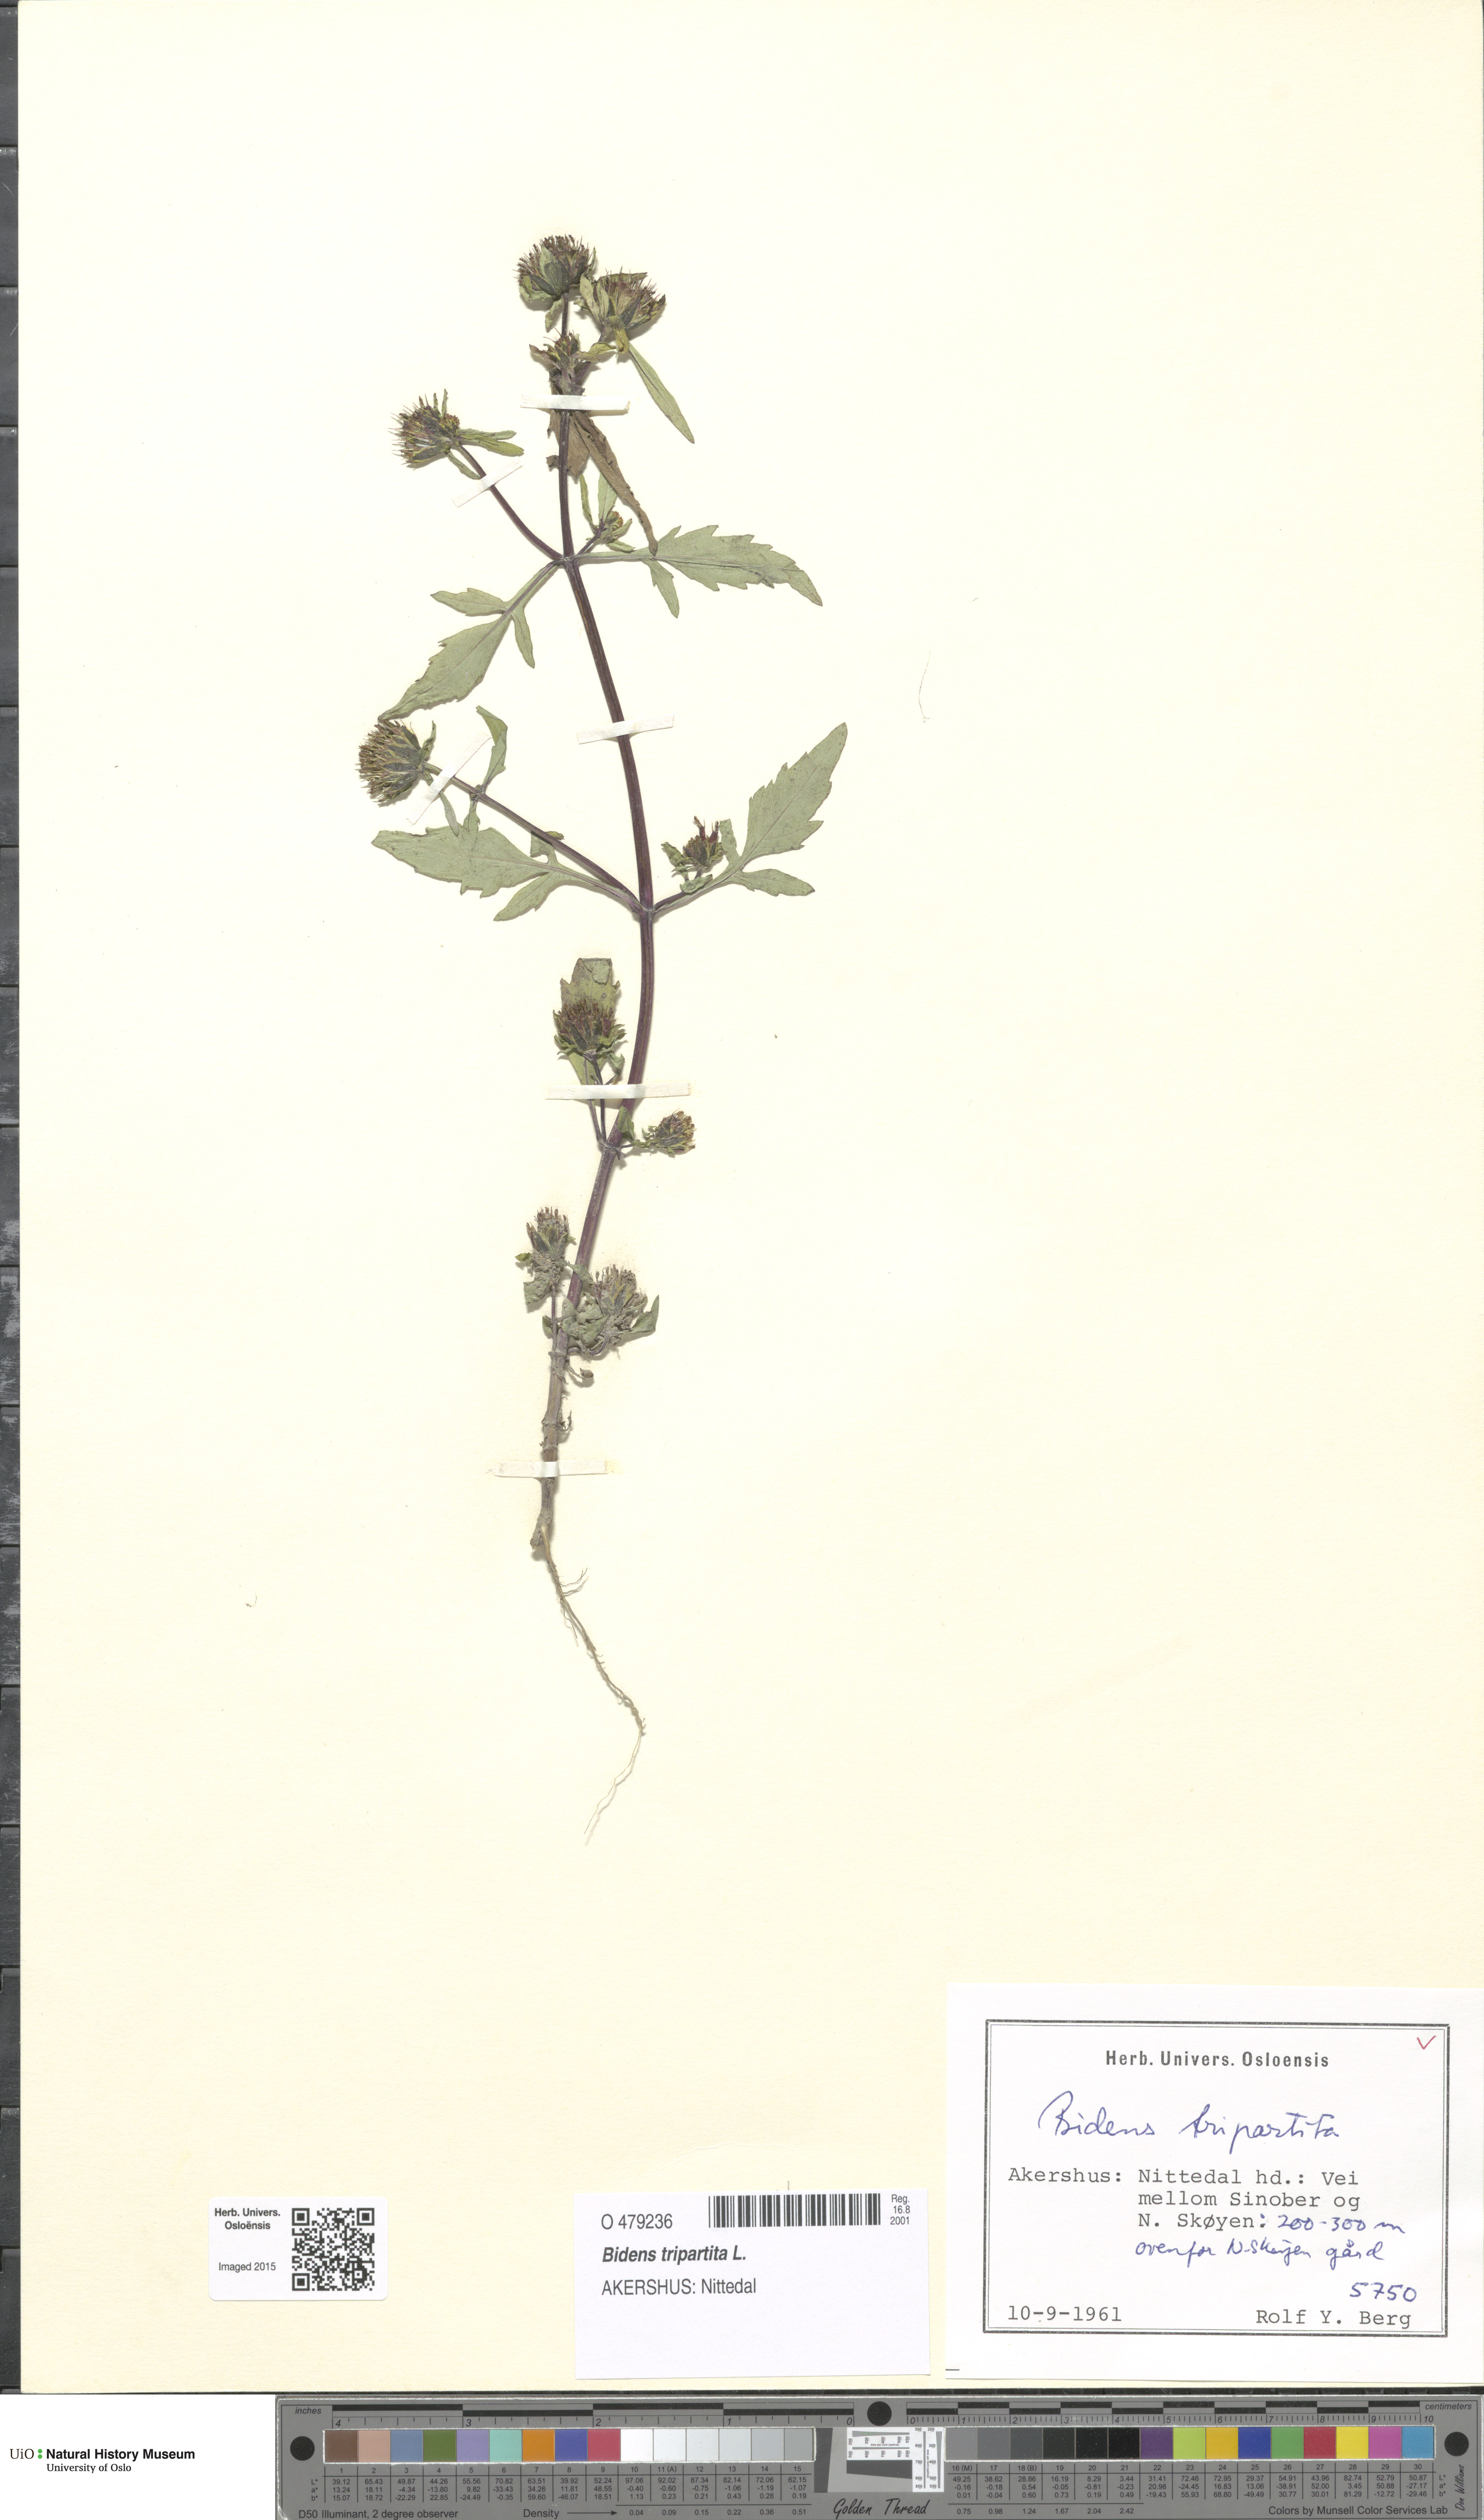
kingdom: Plantae
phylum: Tracheophyta
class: Magnoliopsida
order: Asterales
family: Asteraceae
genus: Bidens
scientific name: Bidens tripartita
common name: Trifid bur-marigold
